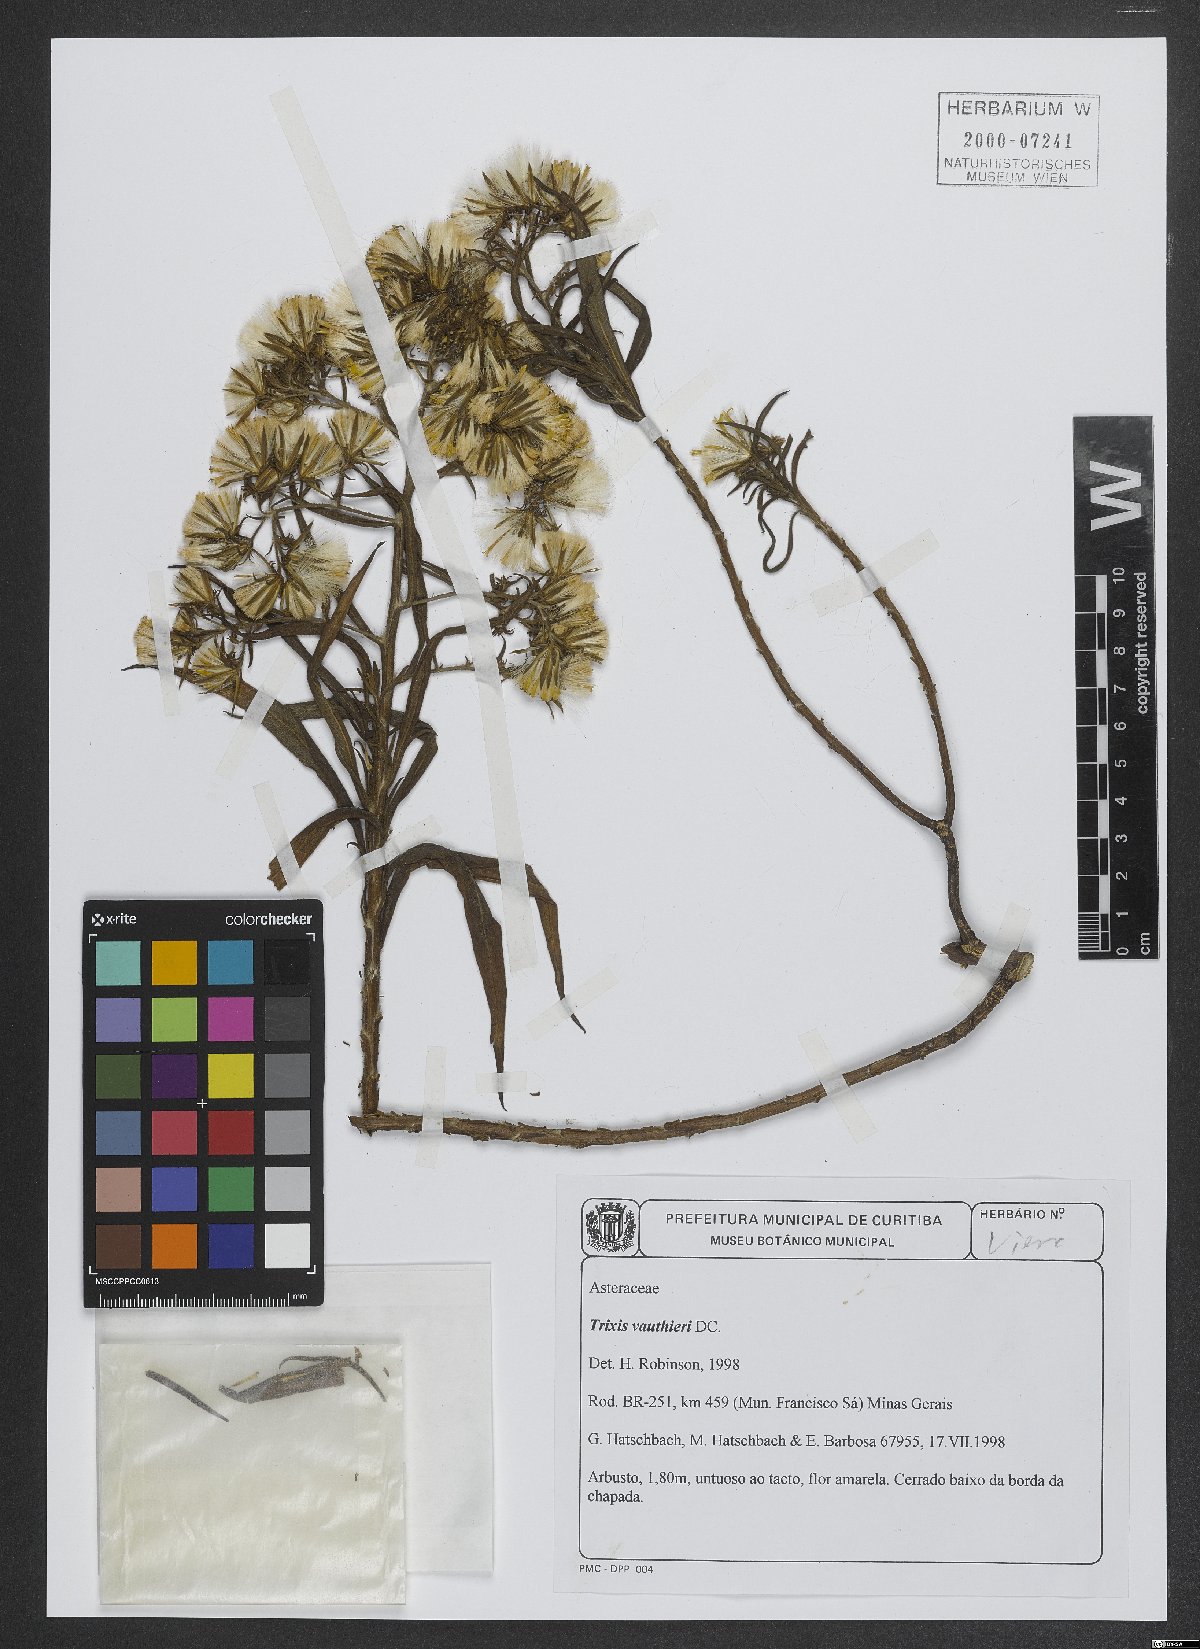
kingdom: Plantae
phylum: Tracheophyta
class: Magnoliopsida
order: Asterales
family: Asteraceae
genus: Trixis
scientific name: Trixis vauthieri
